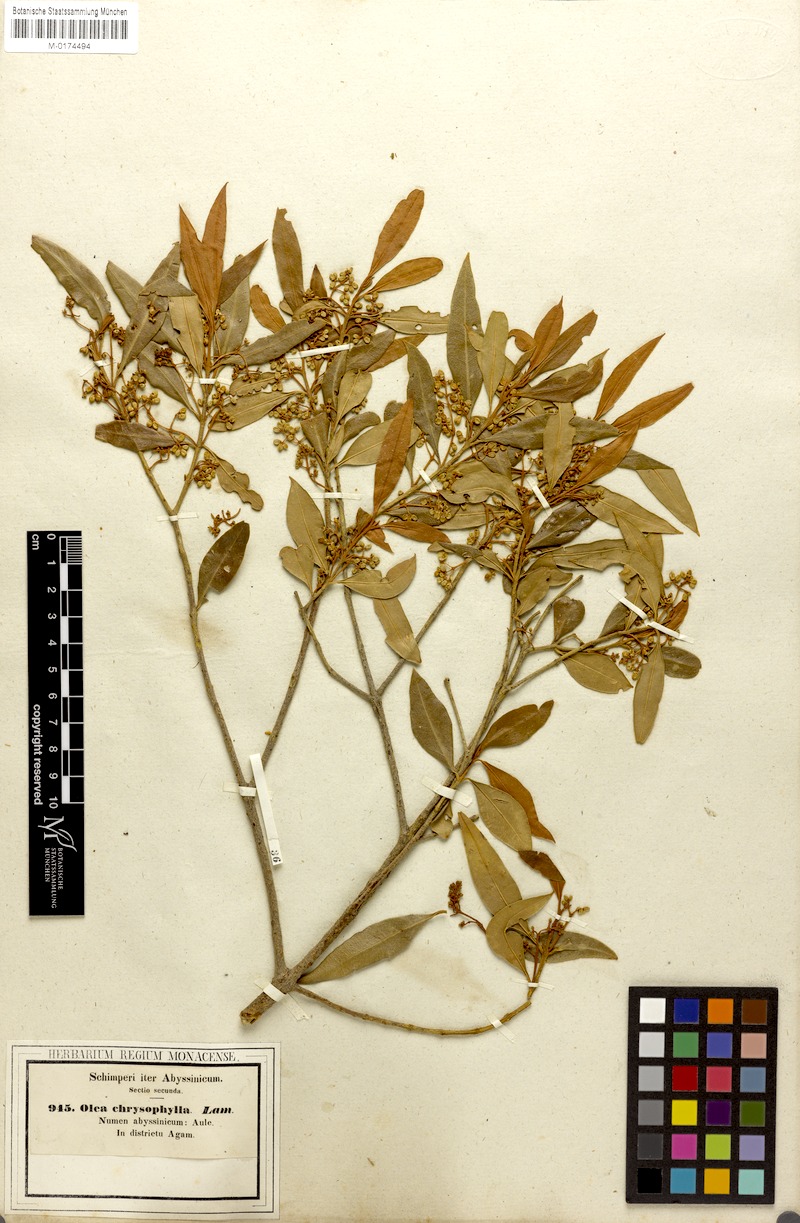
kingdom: Plantae
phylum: Tracheophyta
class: Magnoliopsida
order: Lamiales
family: Oleaceae
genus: Olea
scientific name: Olea europaea
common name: Olive
